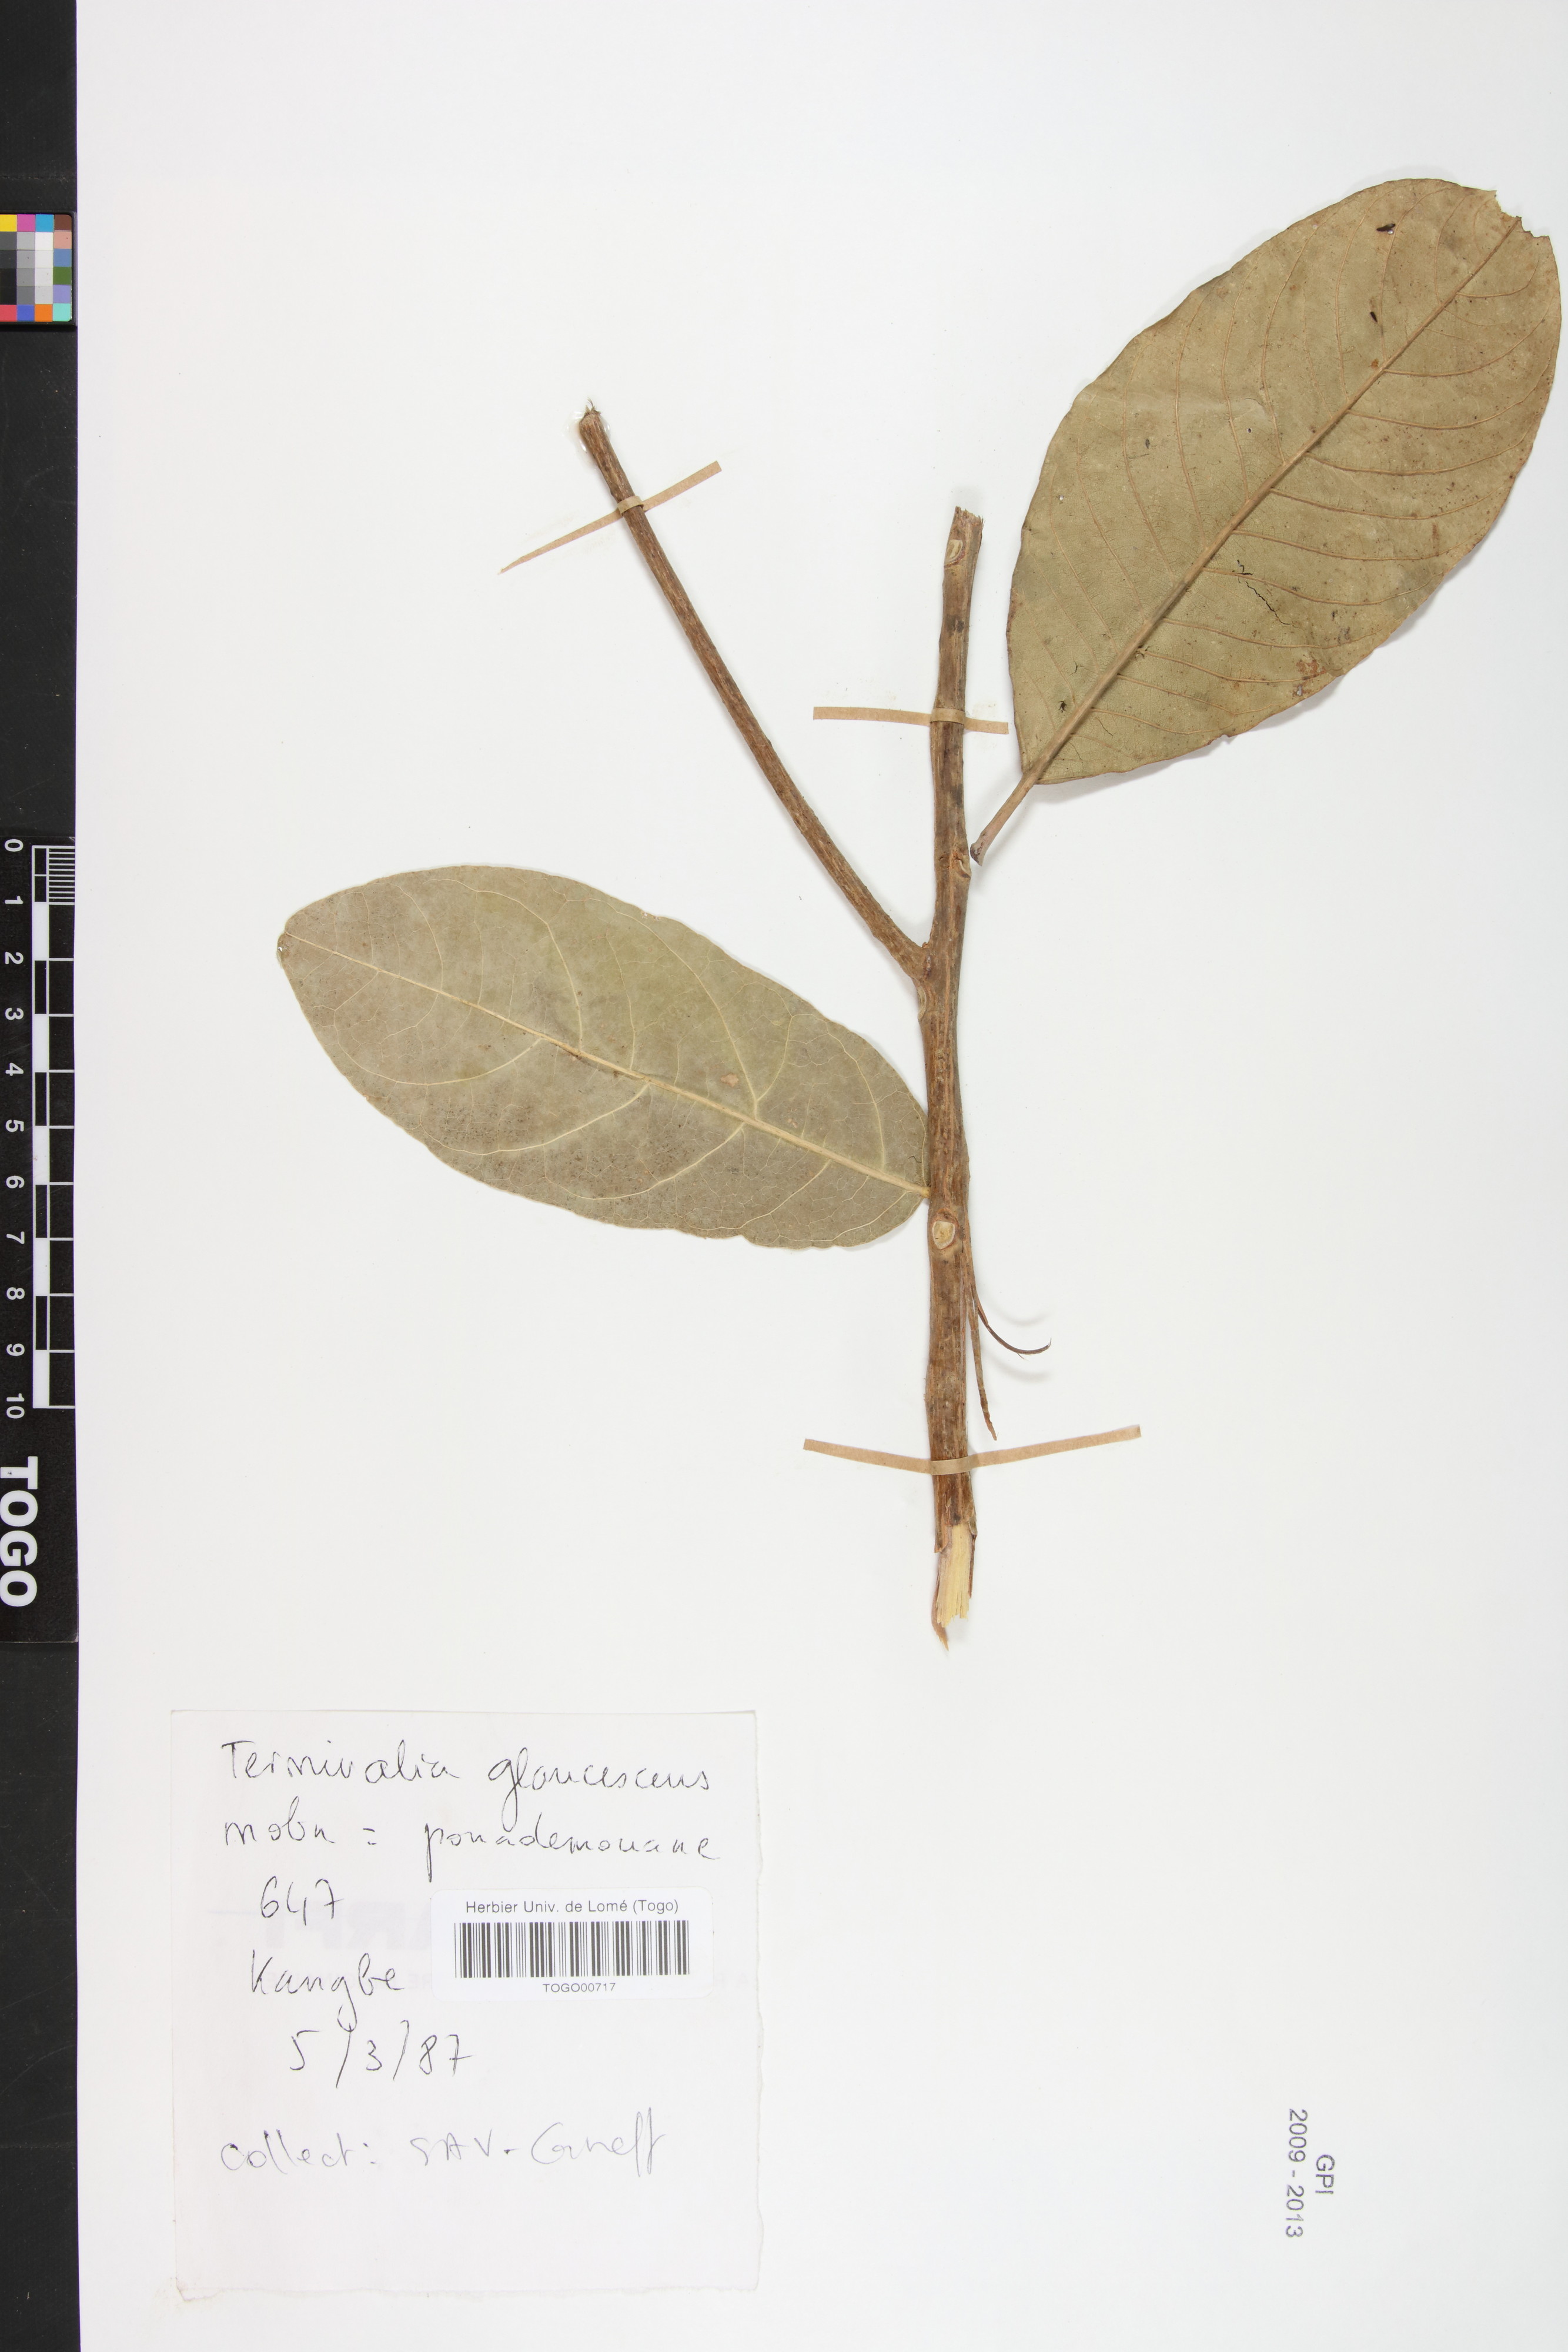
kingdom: Plantae
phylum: Tracheophyta
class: Magnoliopsida
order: Myrtales
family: Combretaceae
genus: Terminalia
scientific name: Terminalia schimperiana
